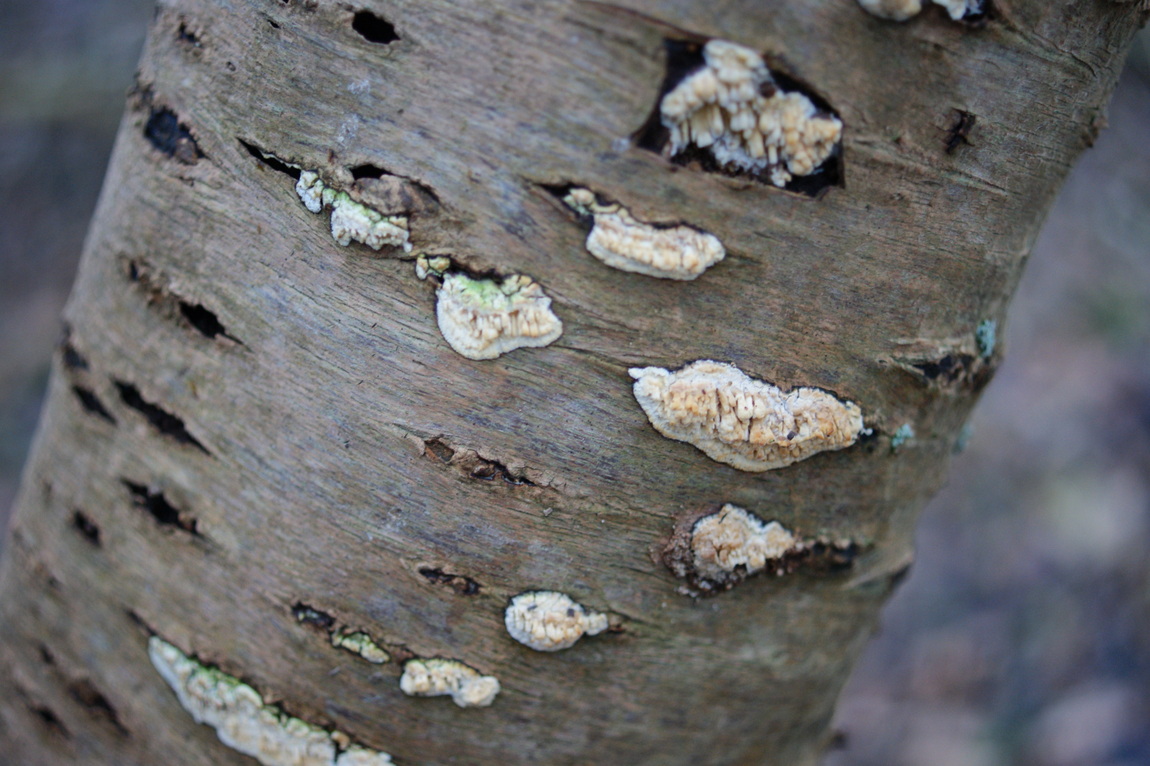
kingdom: Fungi
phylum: Basidiomycota
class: Agaricomycetes
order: Hymenochaetales
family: Schizoporaceae
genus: Xylodon
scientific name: Xylodon radula
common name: grovtandet kalkskind
